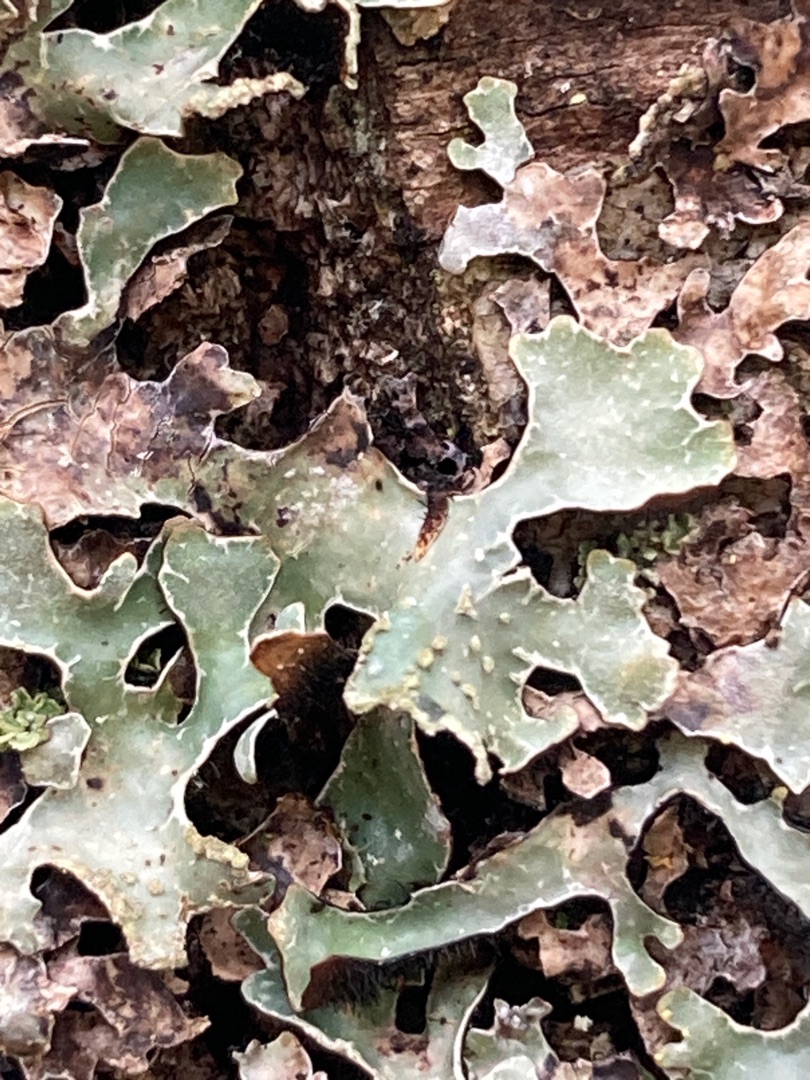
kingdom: Fungi
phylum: Ascomycota
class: Lecanoromycetes
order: Lecanorales
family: Parmeliaceae
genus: Parmelia
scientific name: Parmelia sulcata
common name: Rynket skållav
